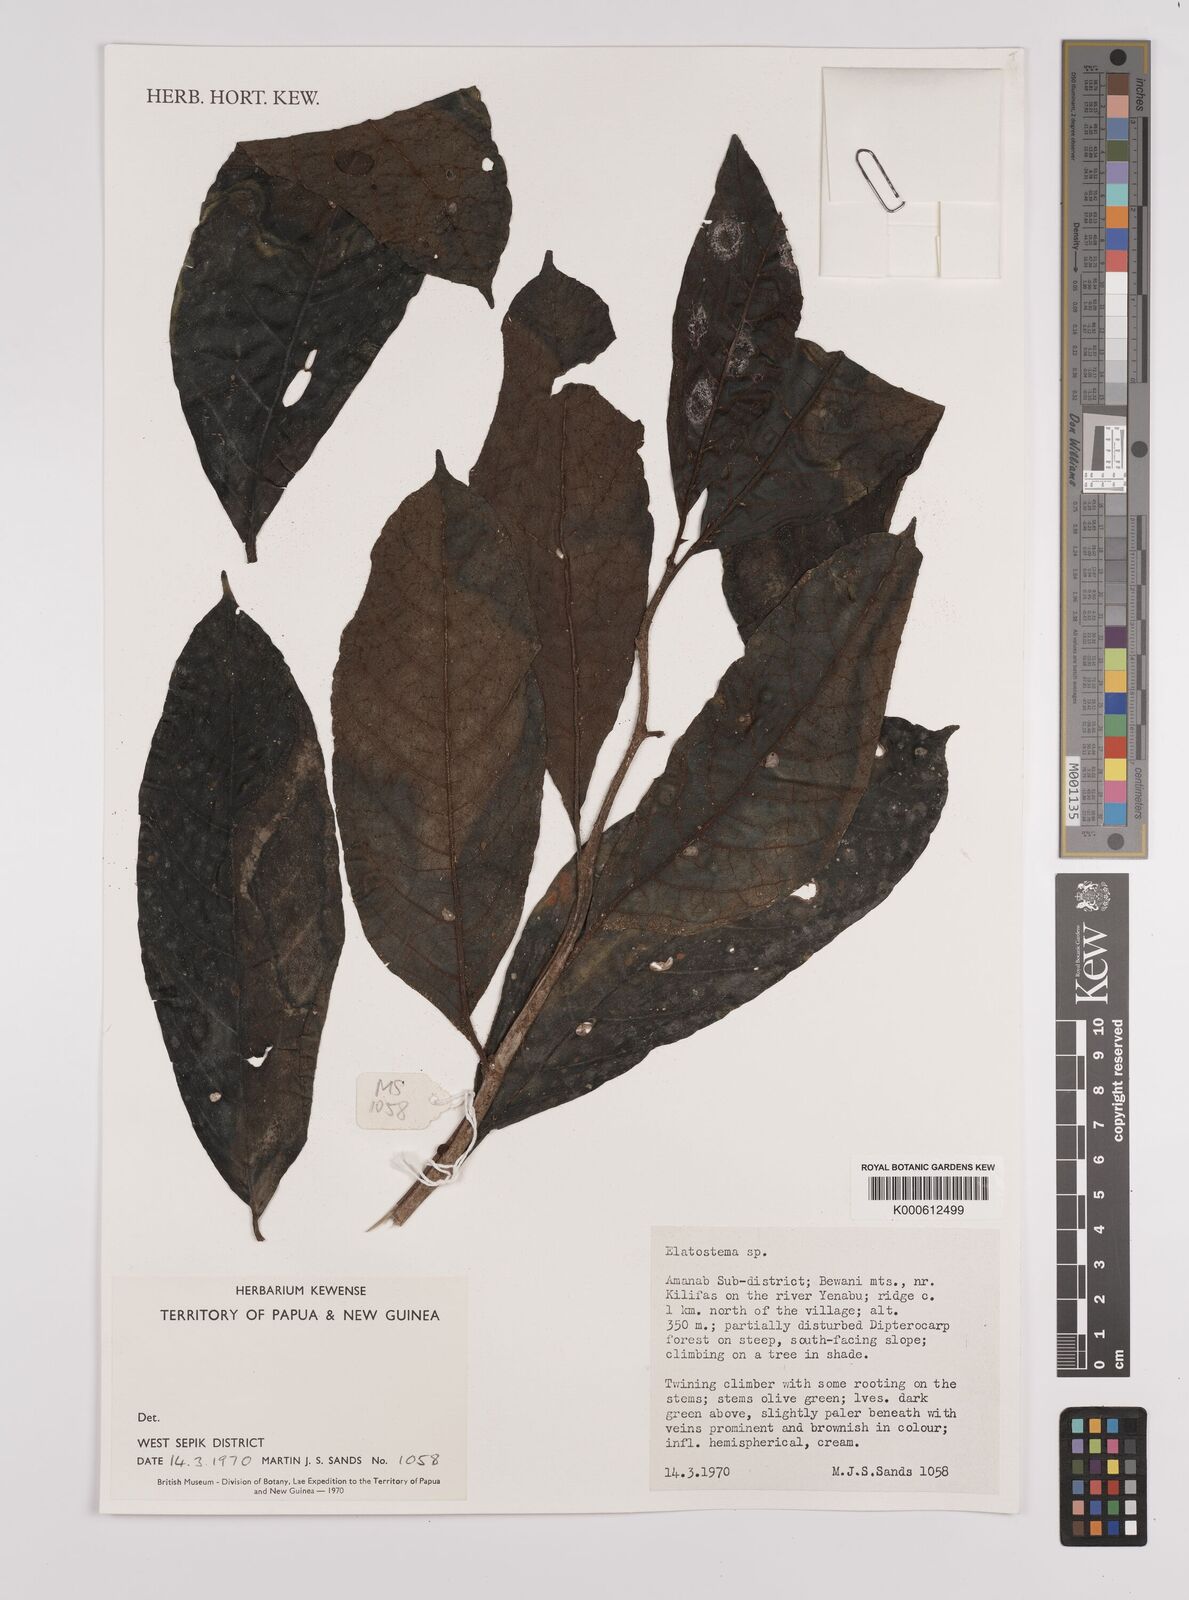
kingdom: Plantae
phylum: Tracheophyta
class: Magnoliopsida
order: Rosales
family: Urticaceae
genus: Elatostema
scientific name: Elatostema
